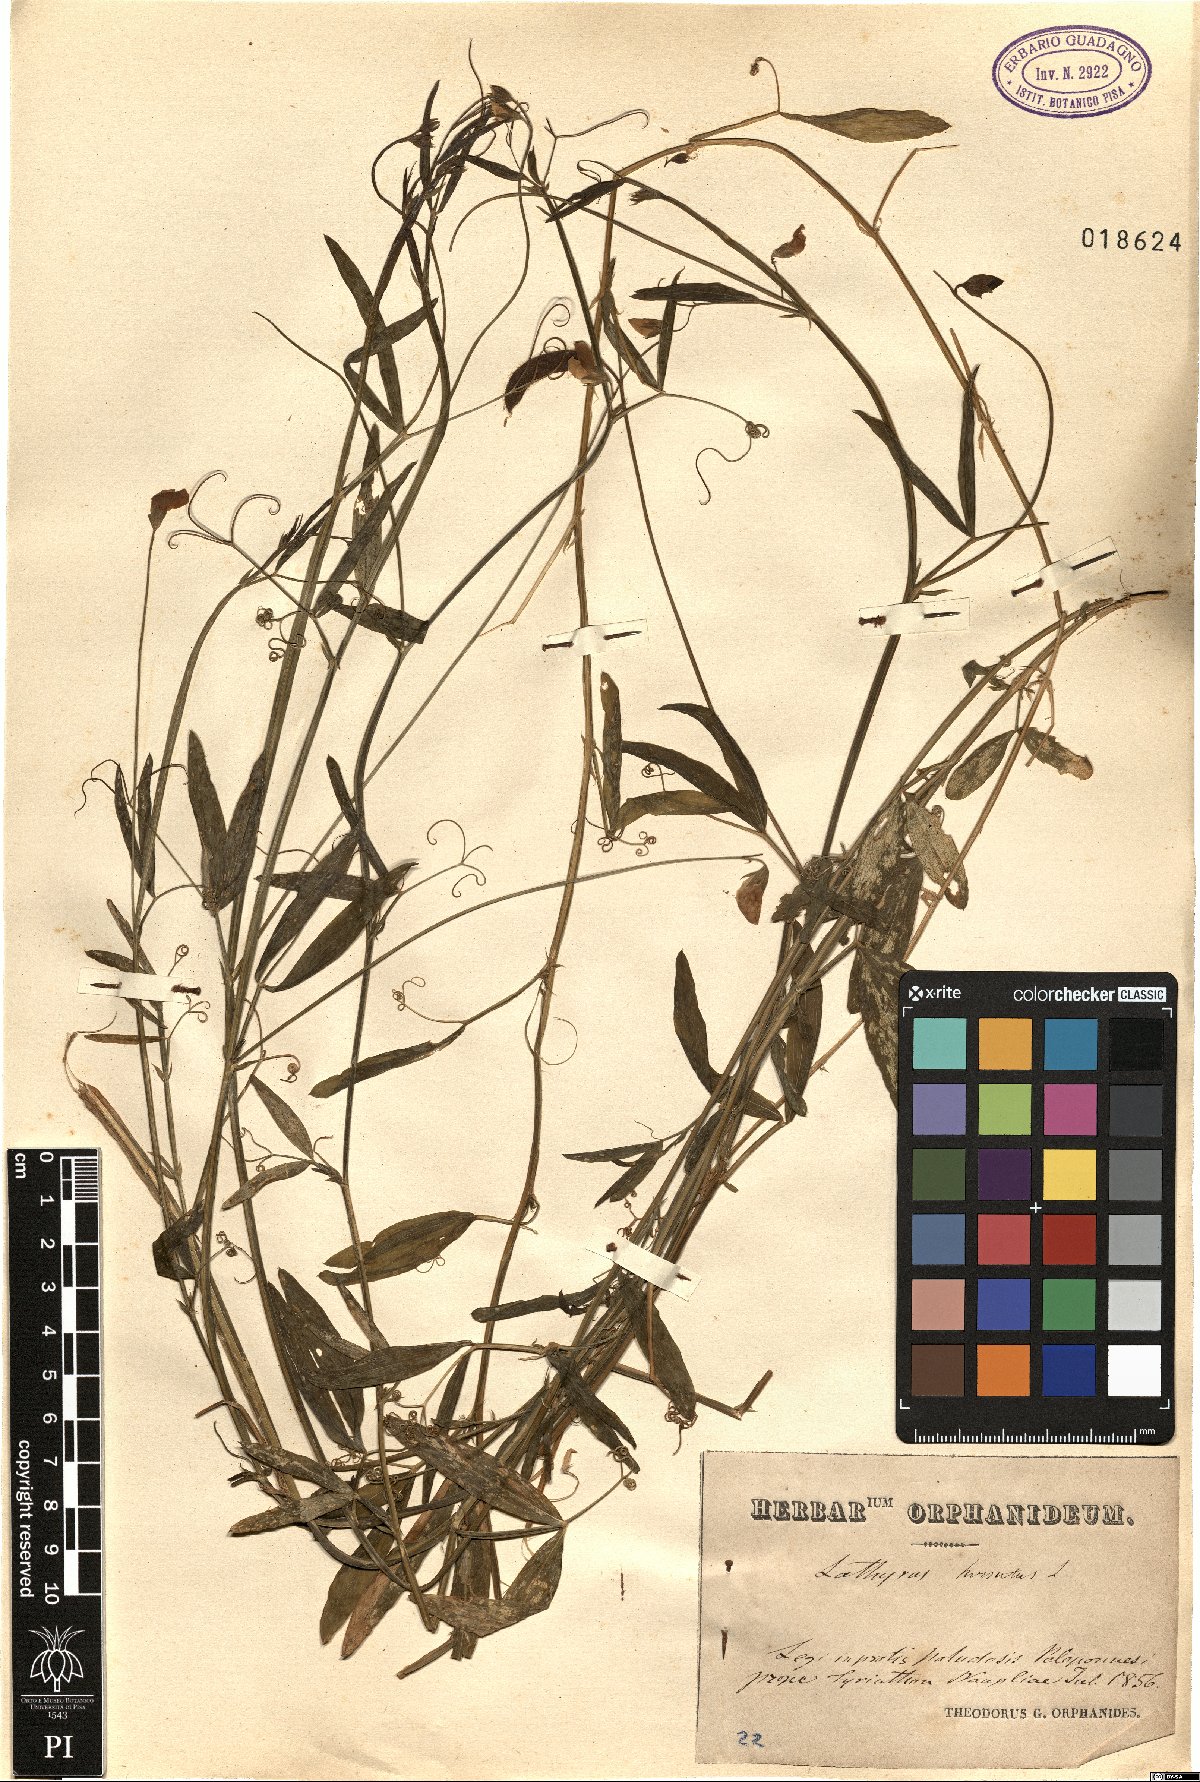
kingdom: Plantae
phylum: Tracheophyta
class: Magnoliopsida
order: Fabales
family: Fabaceae
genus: Lathyrus
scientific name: Lathyrus hirsutus
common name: Hairy vetchling
